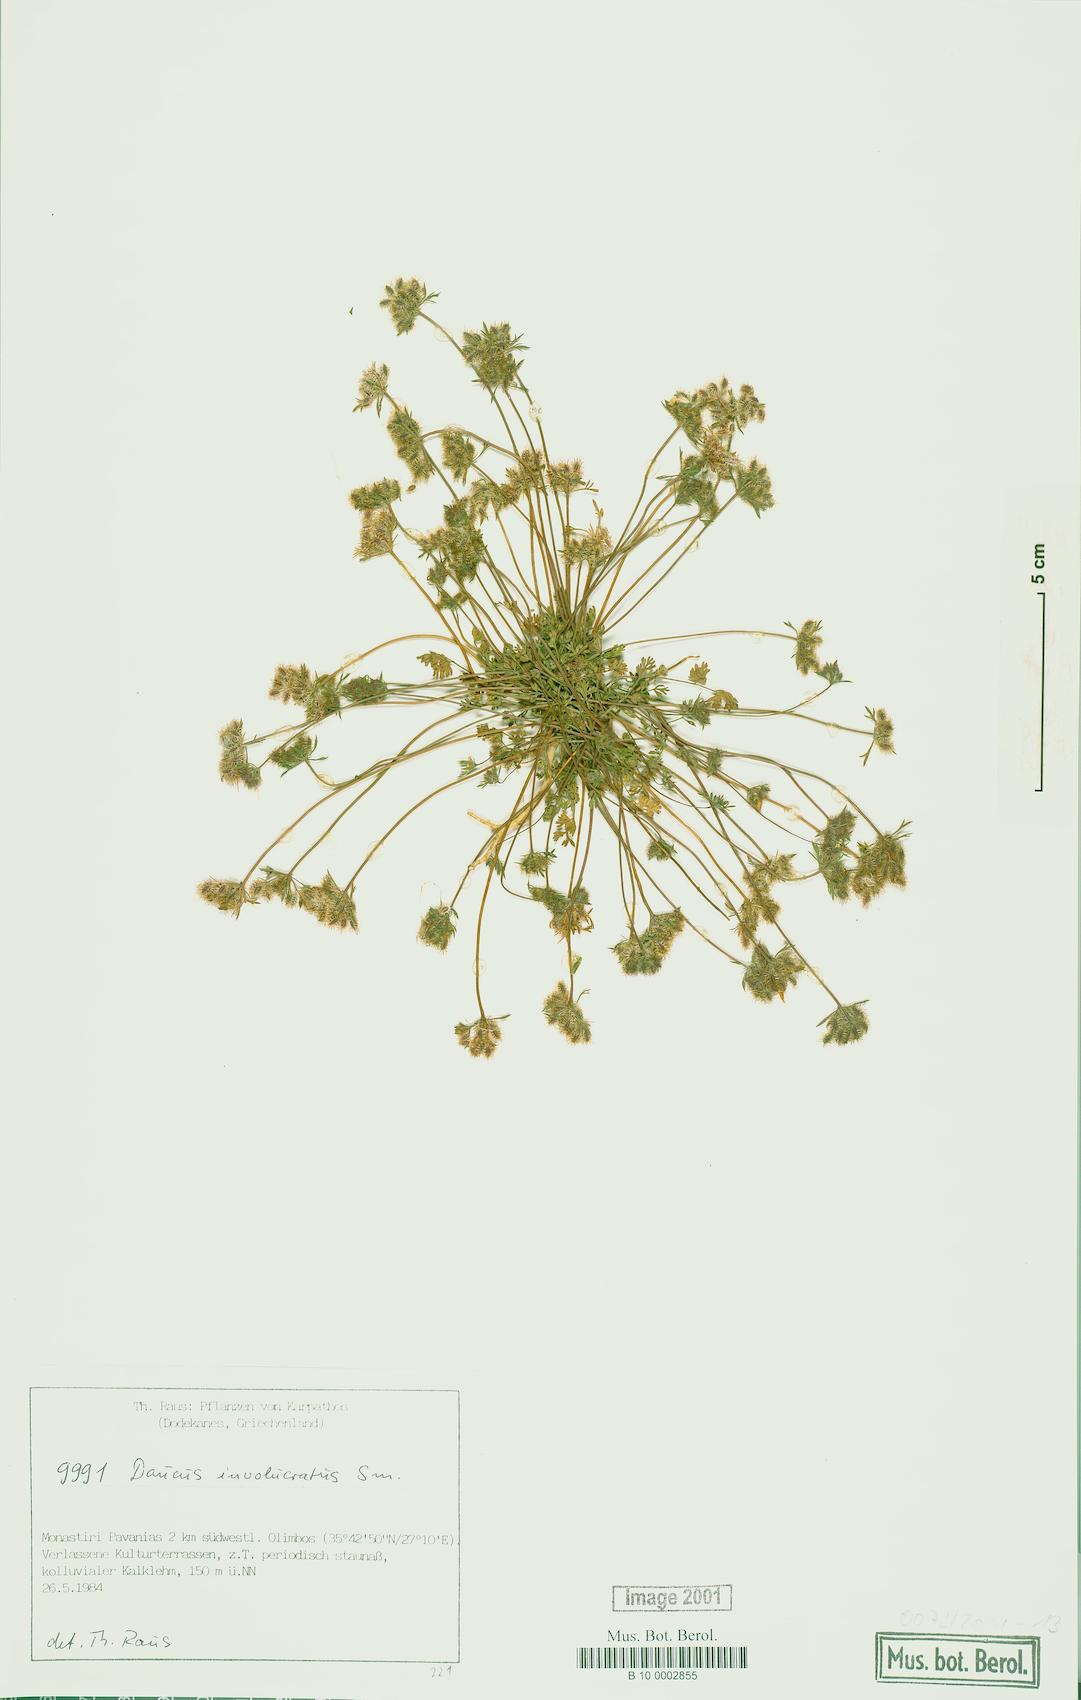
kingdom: Plantae
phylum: Tracheophyta
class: Magnoliopsida
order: Apiales
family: Apiaceae
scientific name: Apiaceae
